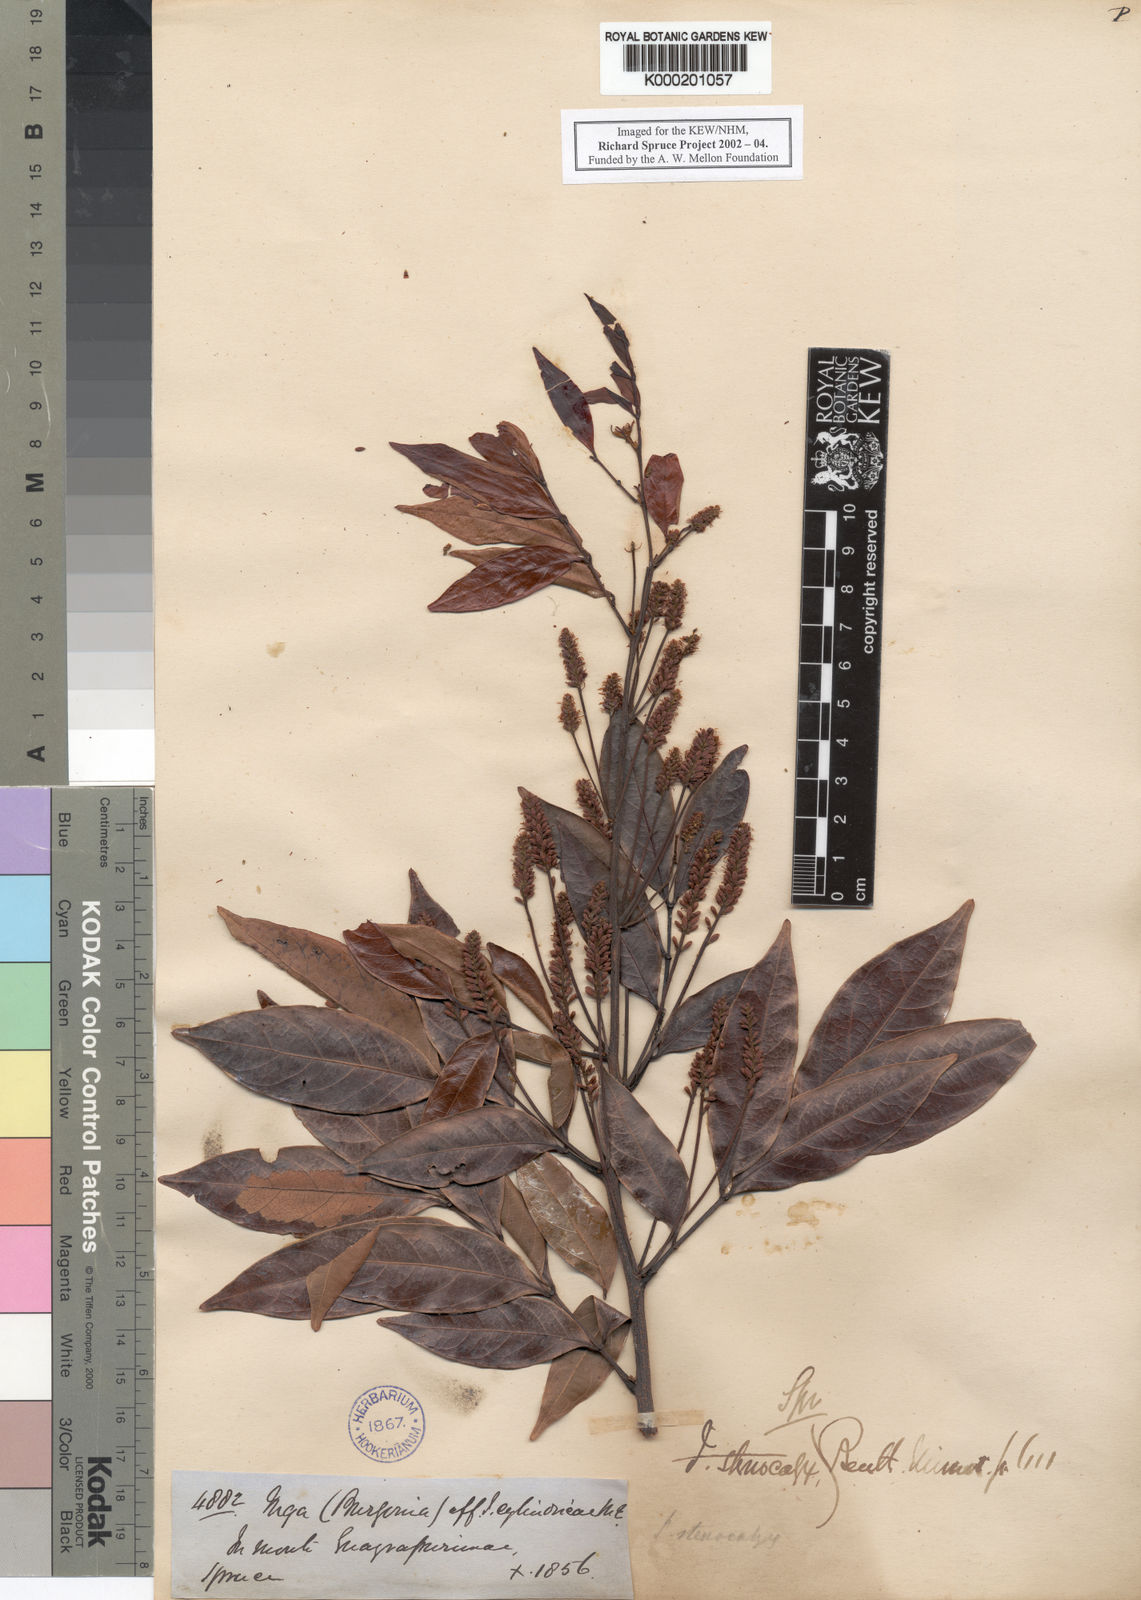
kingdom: Plantae
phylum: Tracheophyta
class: Magnoliopsida
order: Fabales
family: Fabaceae
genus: Inga
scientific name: Inga stenocalyx
